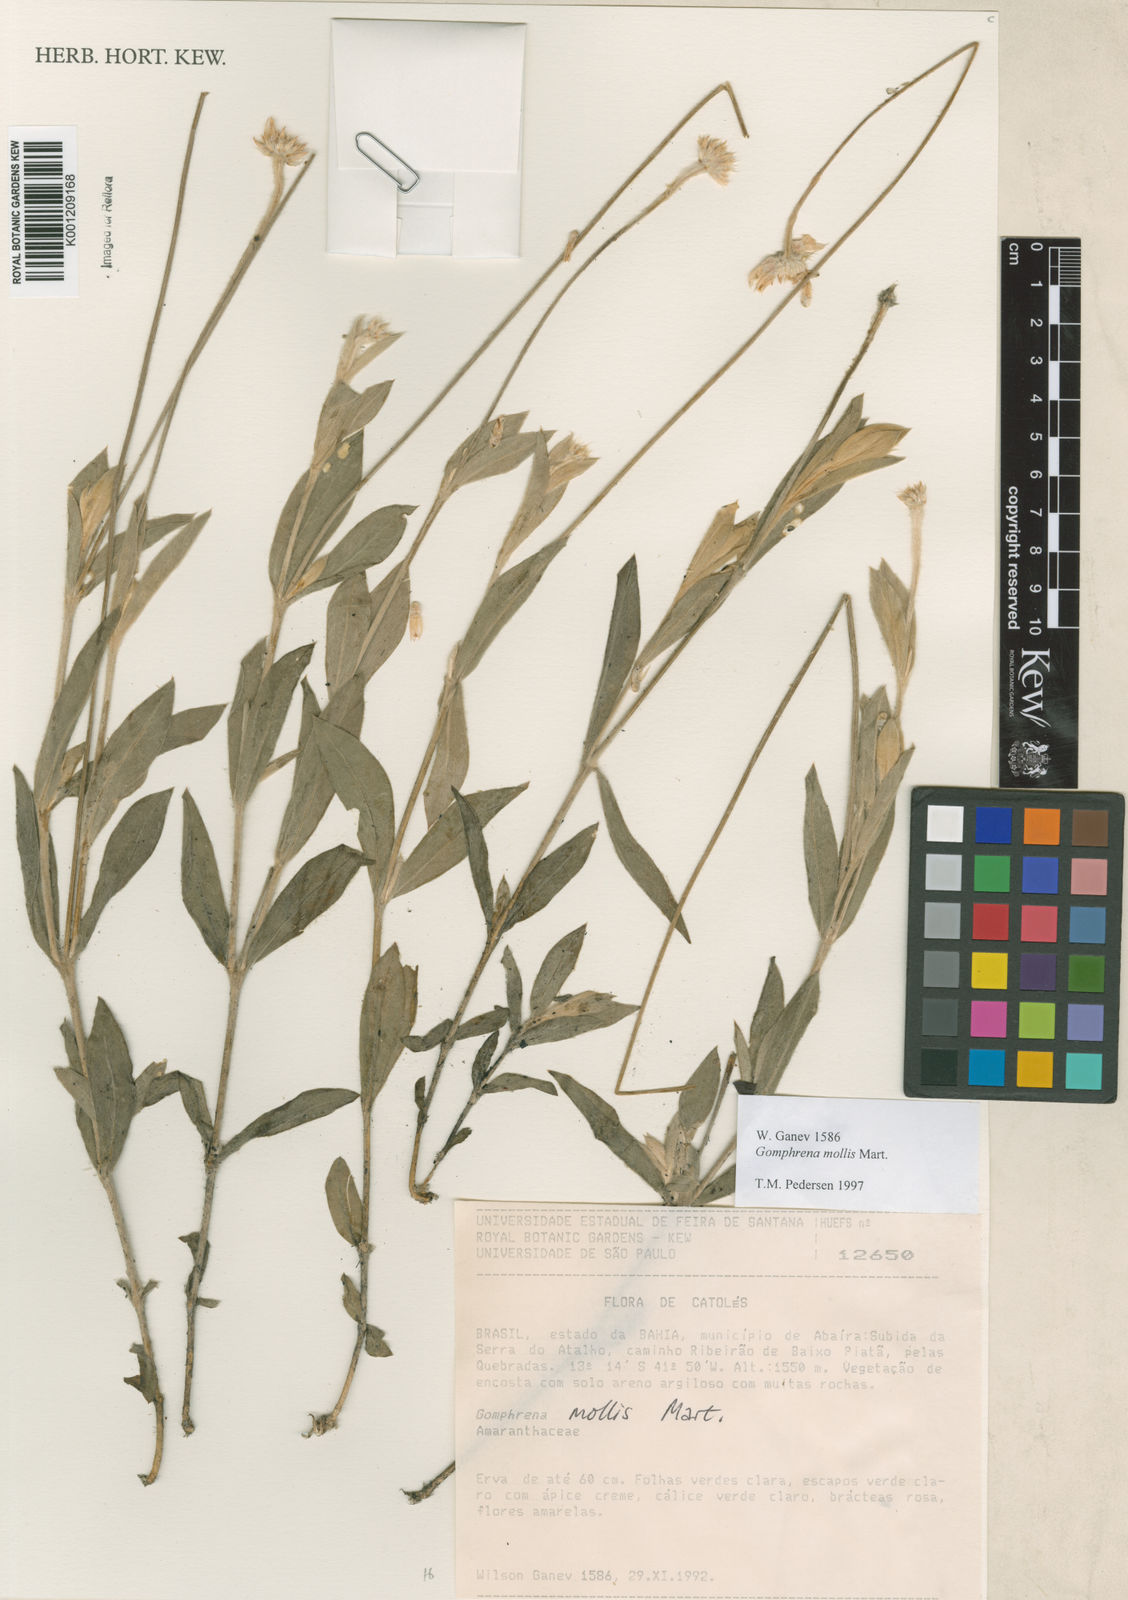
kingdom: Plantae
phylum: Tracheophyta
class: Magnoliopsida
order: Caryophyllales
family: Amaranthaceae
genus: Gomphrena
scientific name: Gomphrena mollis
